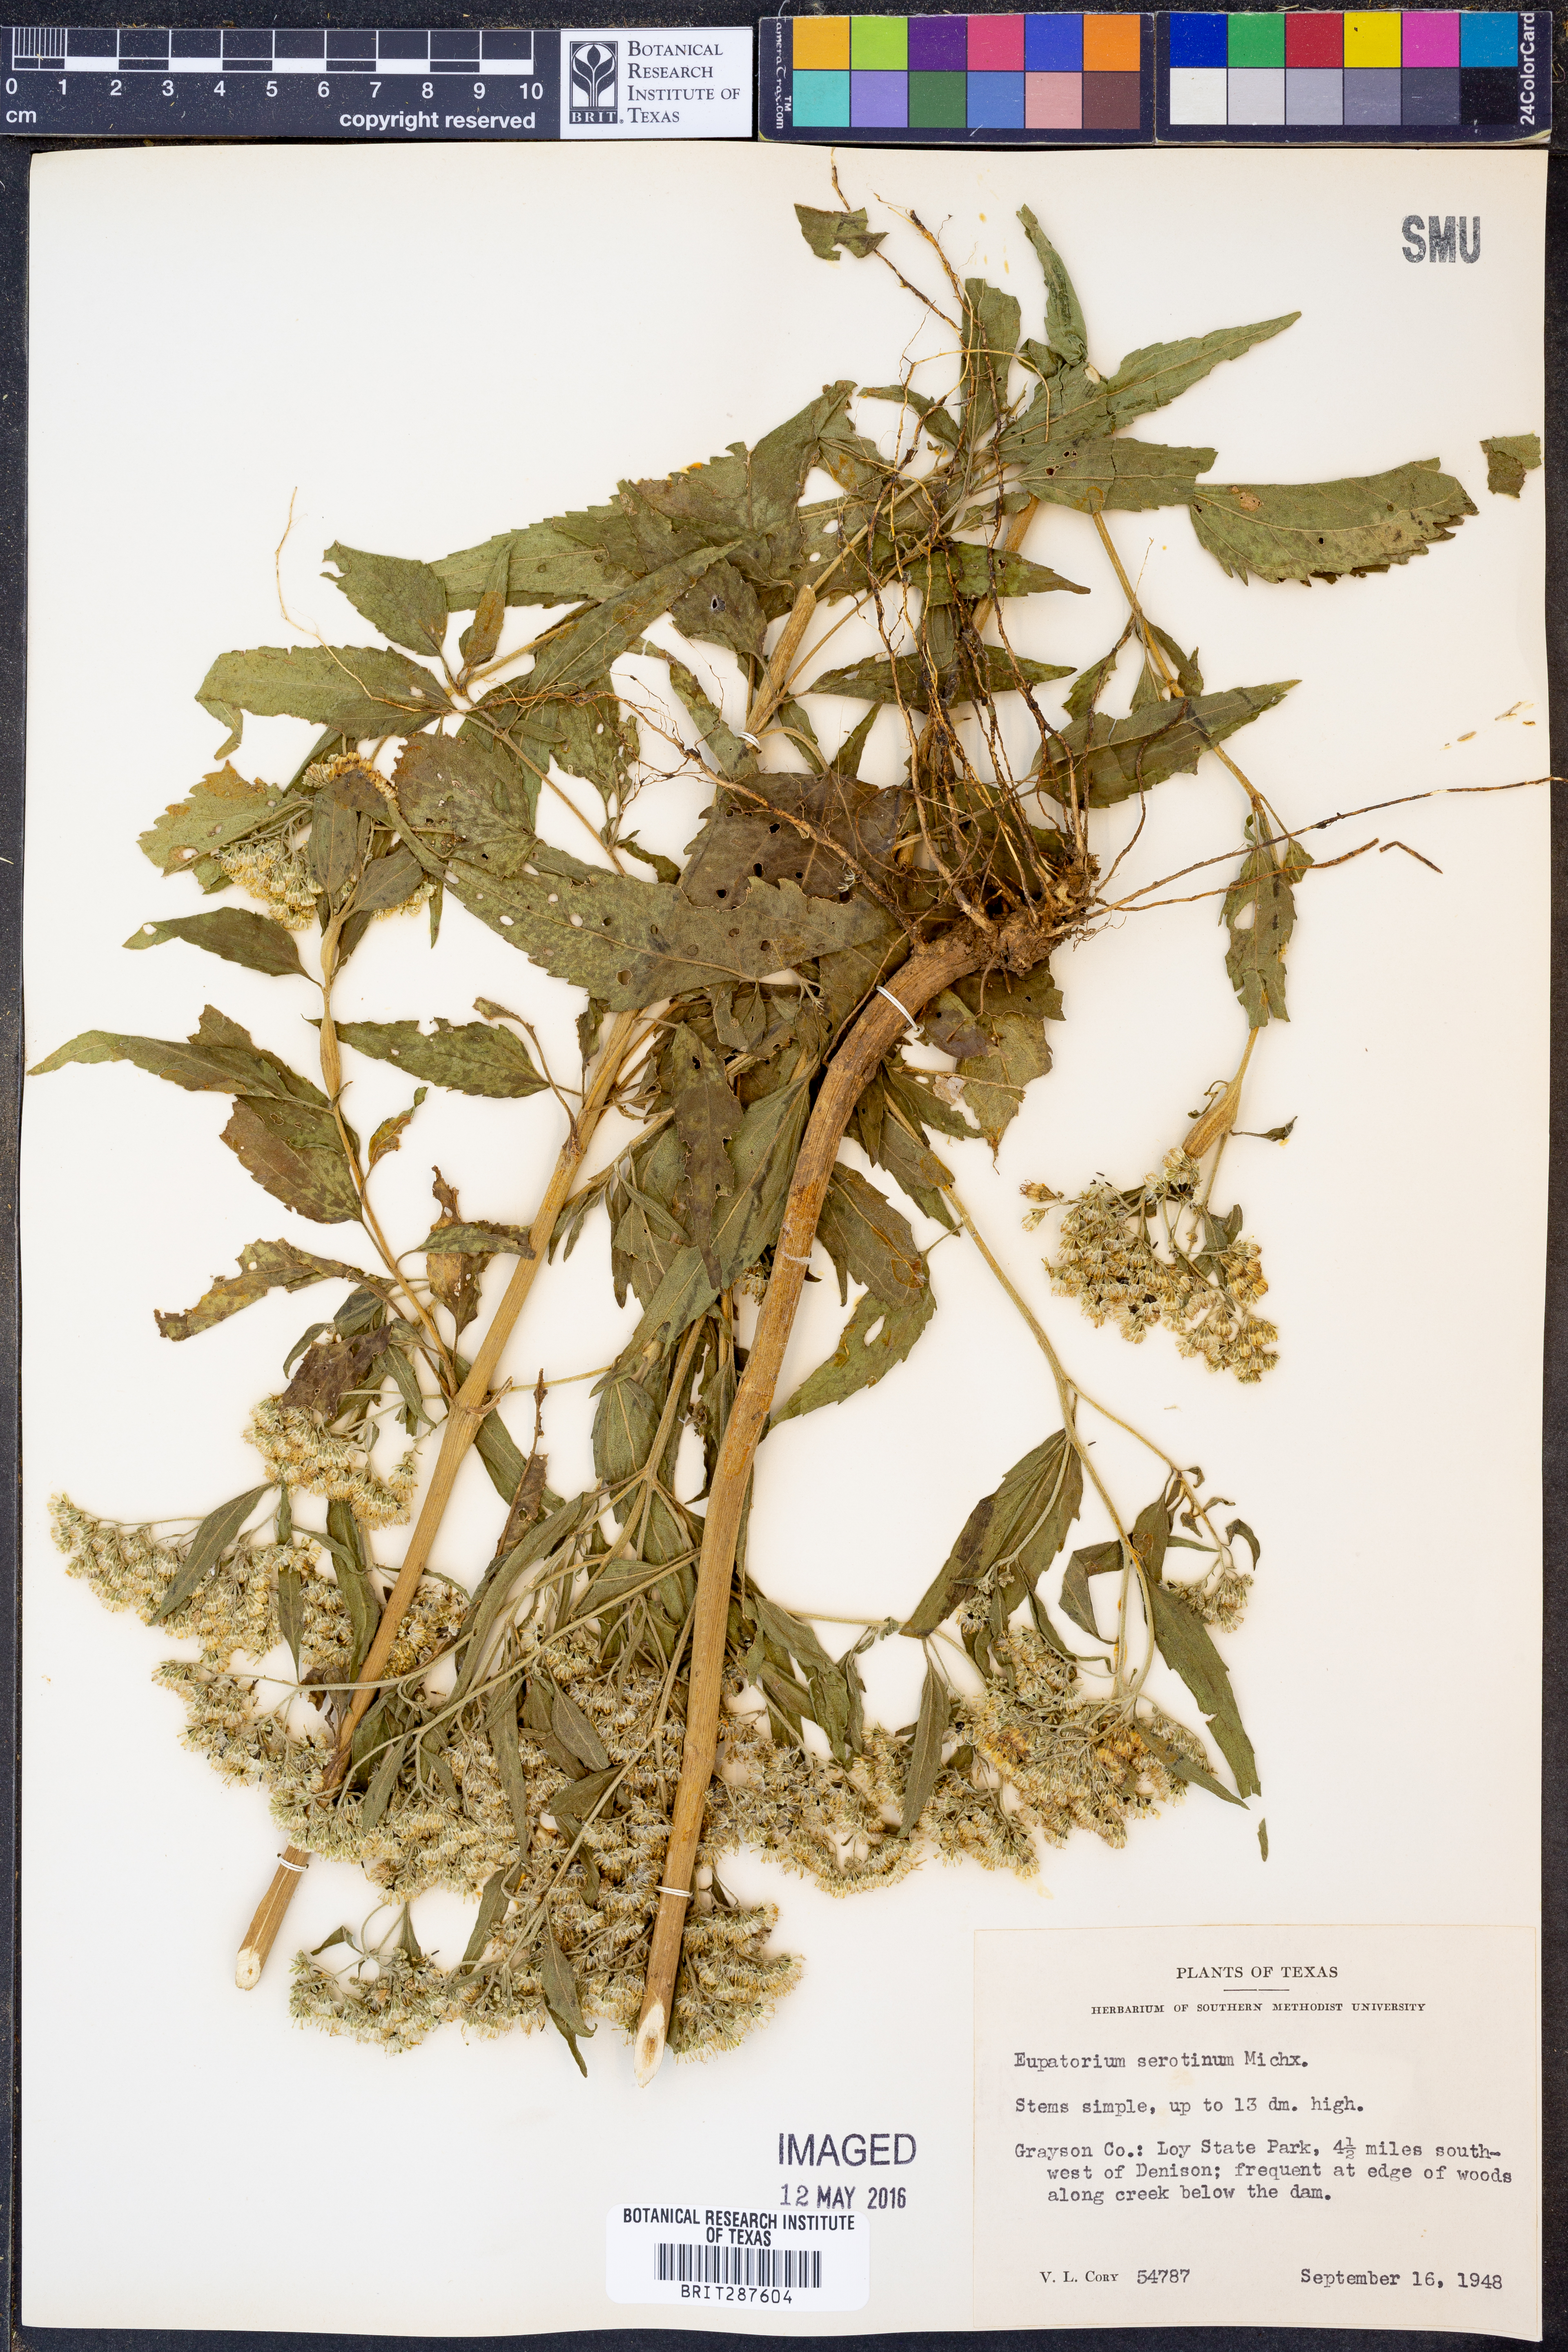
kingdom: Plantae
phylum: Tracheophyta
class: Magnoliopsida
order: Asterales
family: Asteraceae
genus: Eupatorium
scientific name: Eupatorium serotinum
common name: Late boneset
